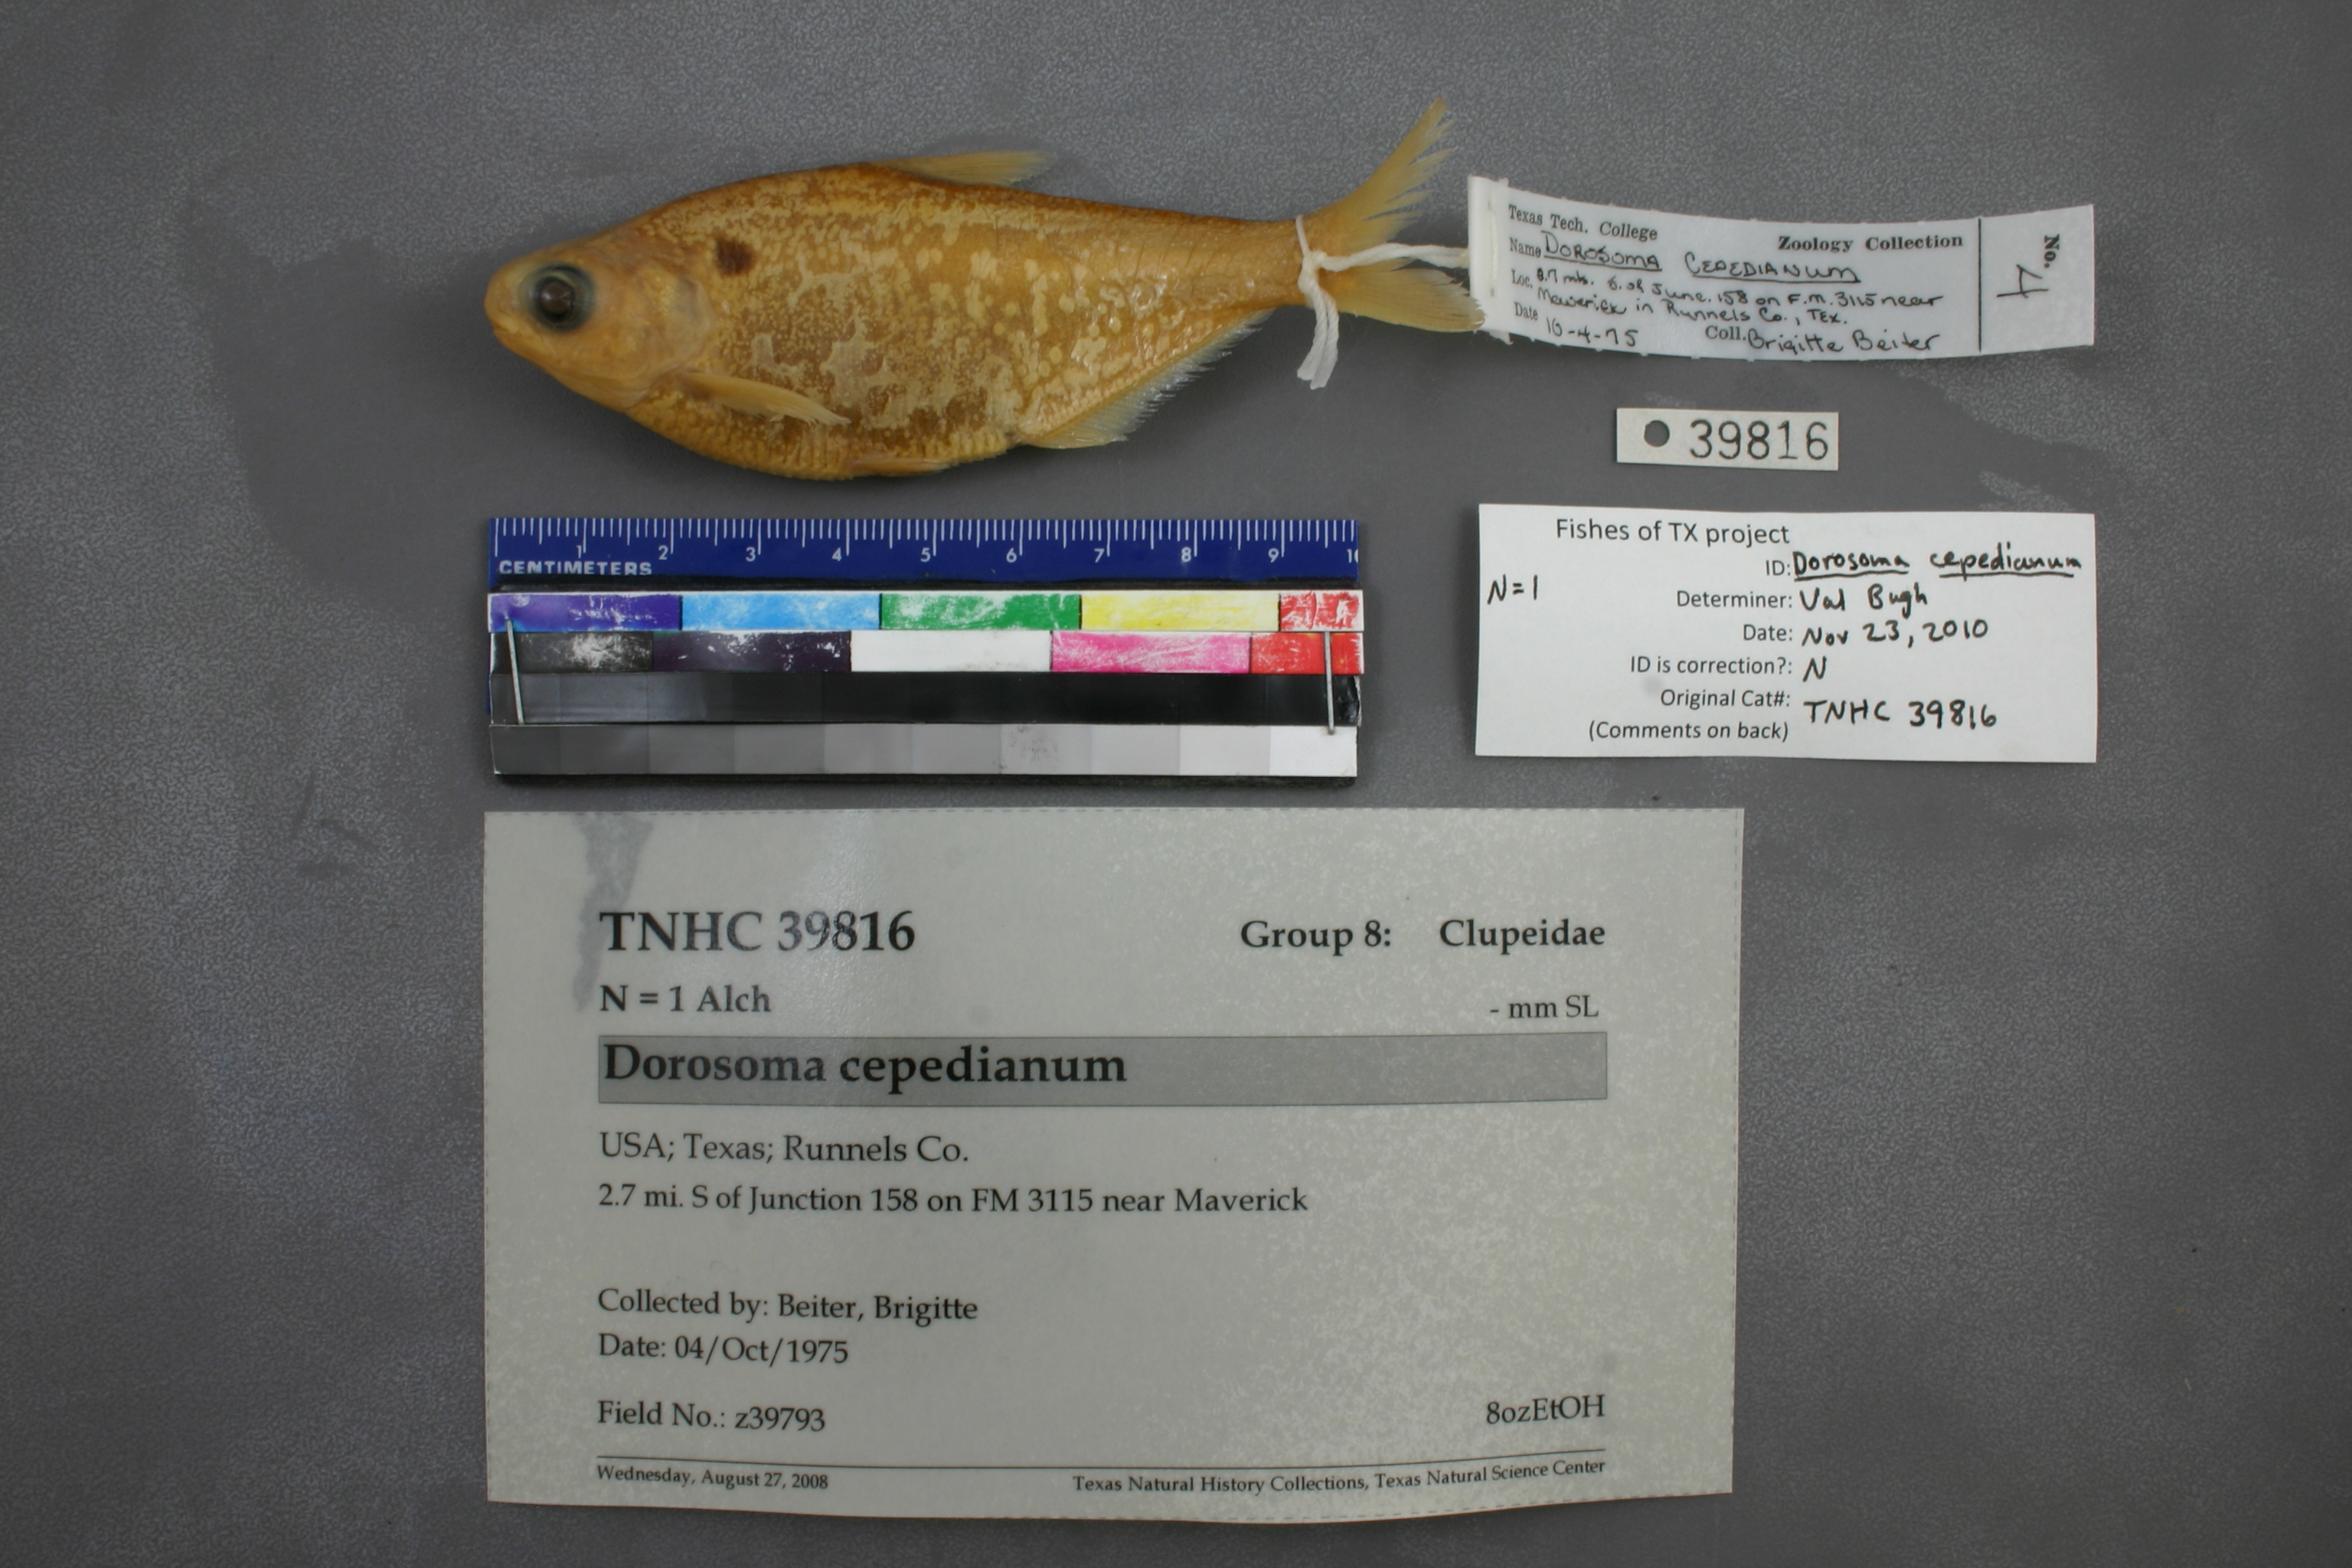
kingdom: Animalia
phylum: Chordata
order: Clupeiformes
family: Clupeidae
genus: Dorosoma
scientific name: Dorosoma cepedianum
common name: Gizzard shad
